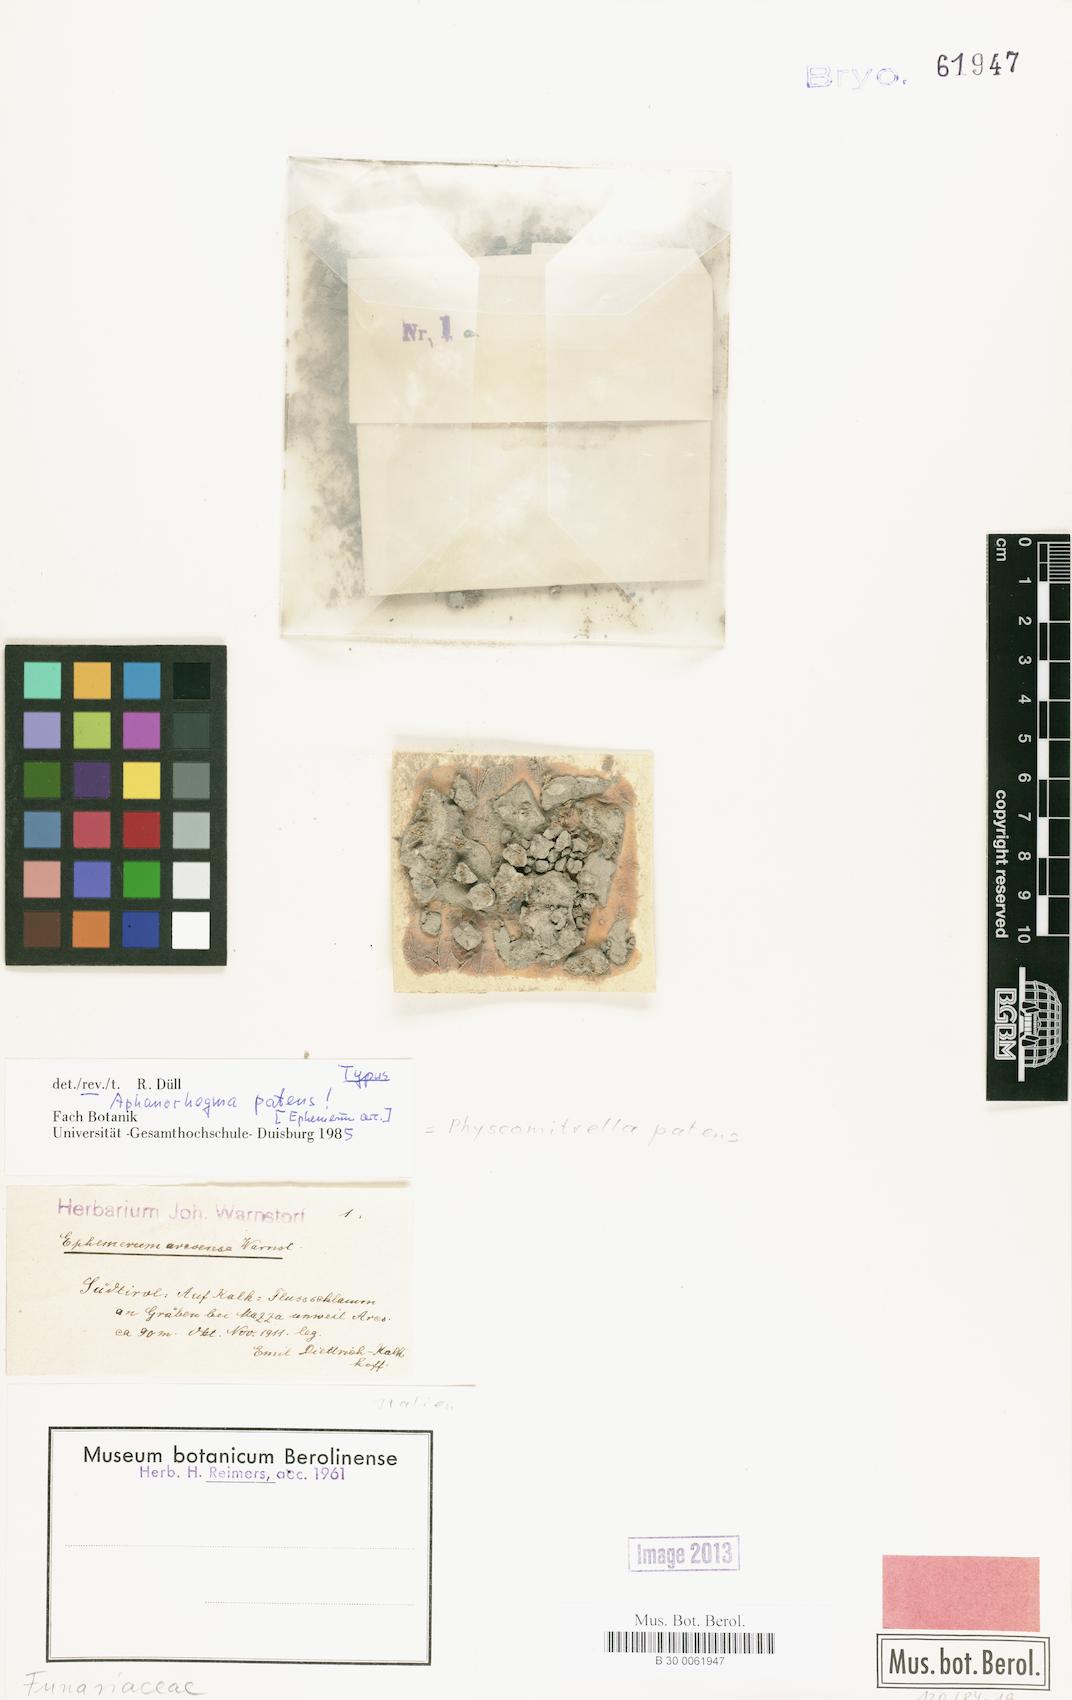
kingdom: Plantae
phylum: Bryophyta
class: Bryopsida
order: Funariales
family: Funariaceae
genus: Physcomitrium
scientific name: Physcomitrium patens
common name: Spreading earth-moss
